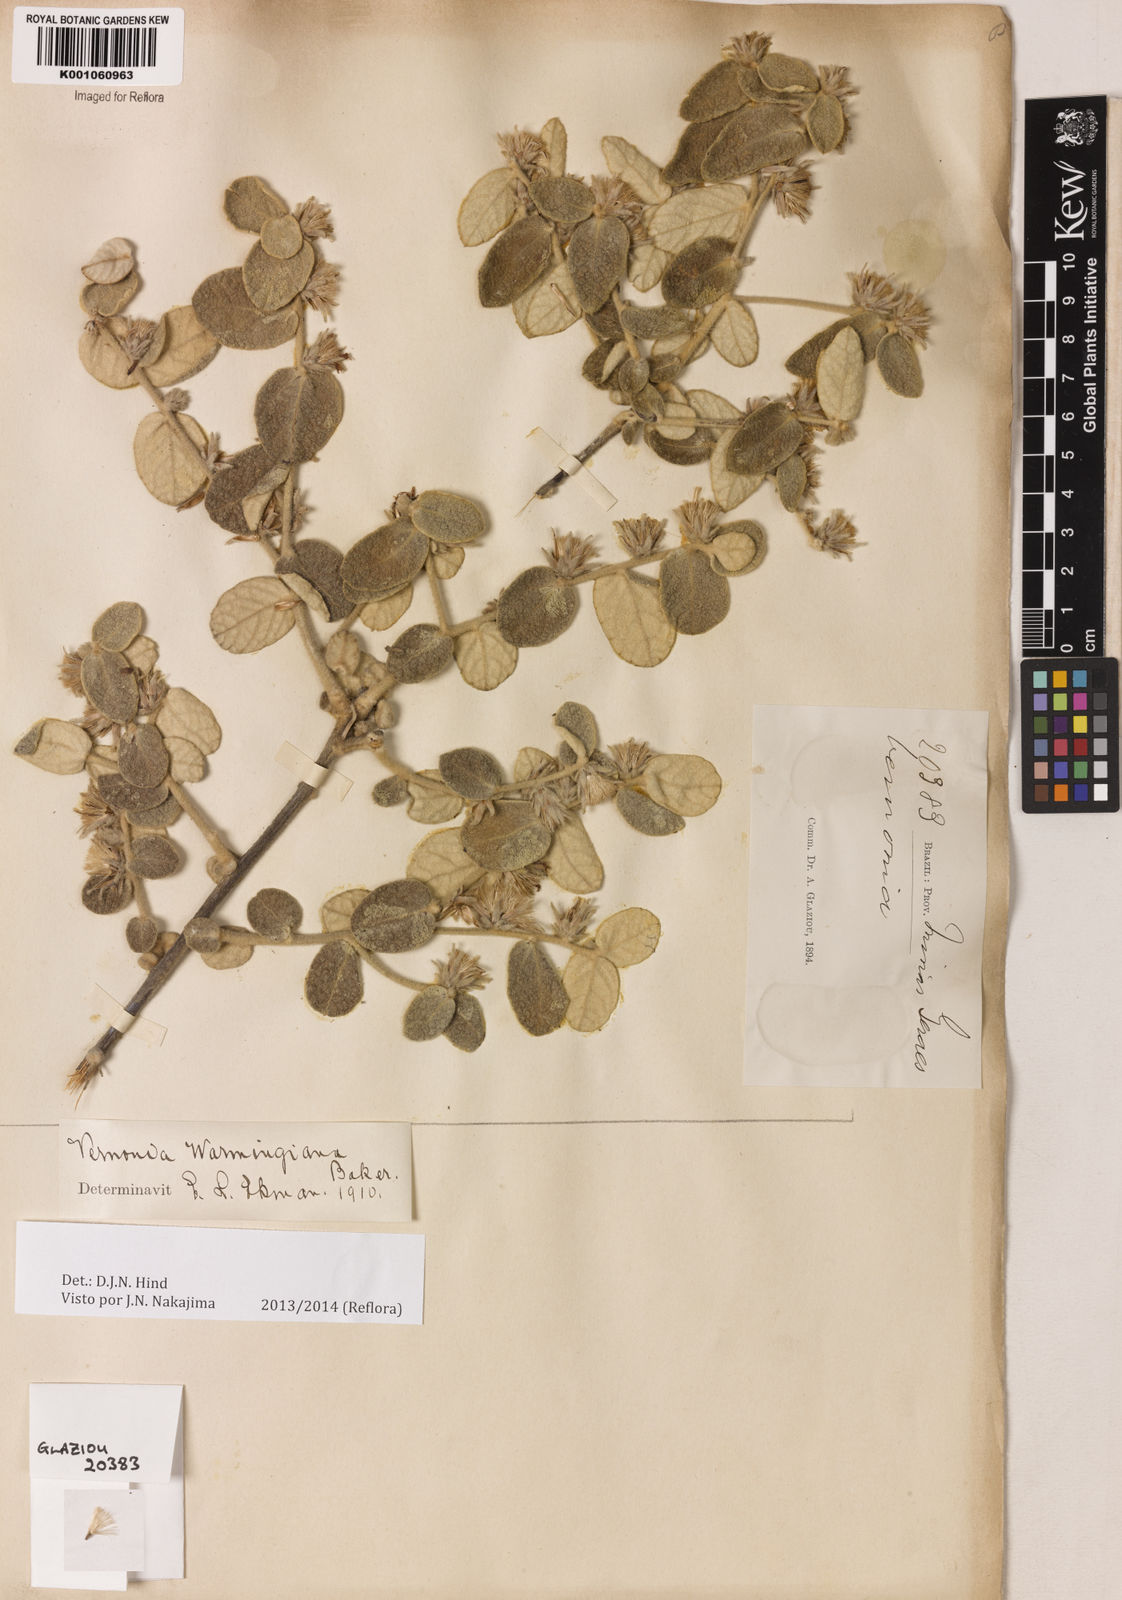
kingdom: Plantae
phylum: Tracheophyta
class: Magnoliopsida
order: Asterales
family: Asteraceae
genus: Lessingianthus
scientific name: Lessingianthus warmingianus
